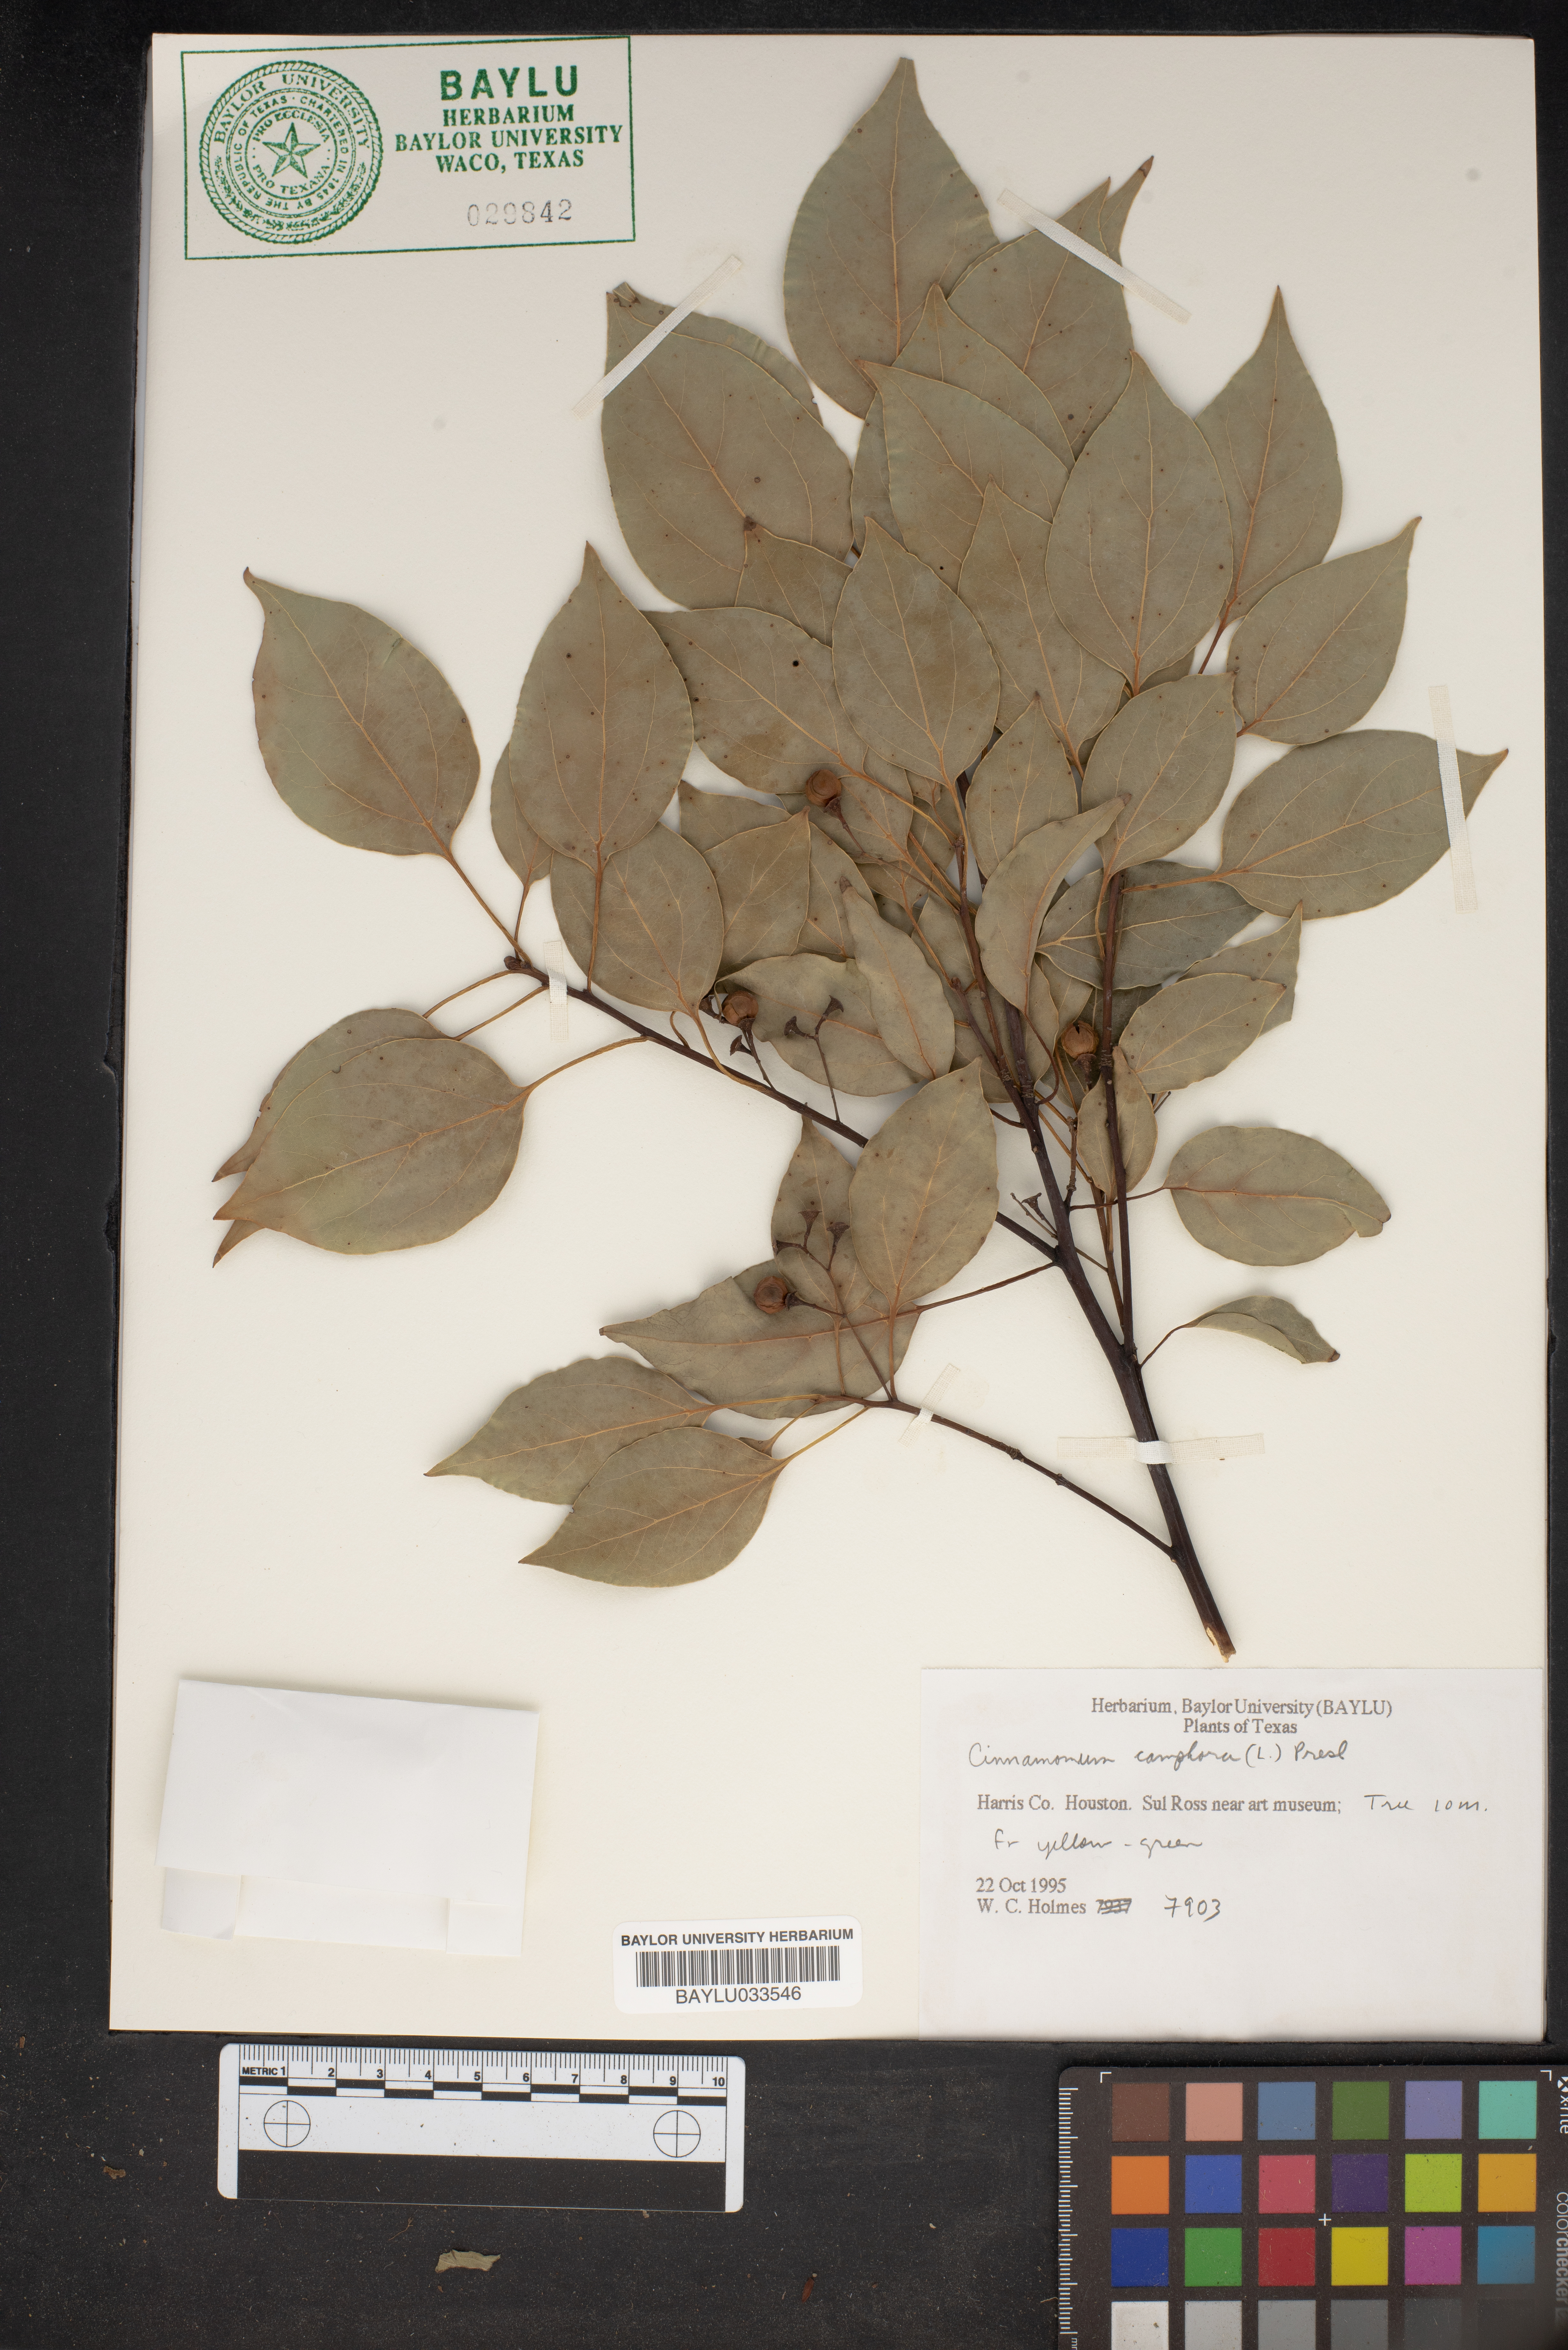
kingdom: Plantae
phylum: Tracheophyta
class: Magnoliopsida
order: Laurales
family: Lauraceae
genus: Cinnamomum
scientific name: Cinnamomum camphora
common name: Camphortree
